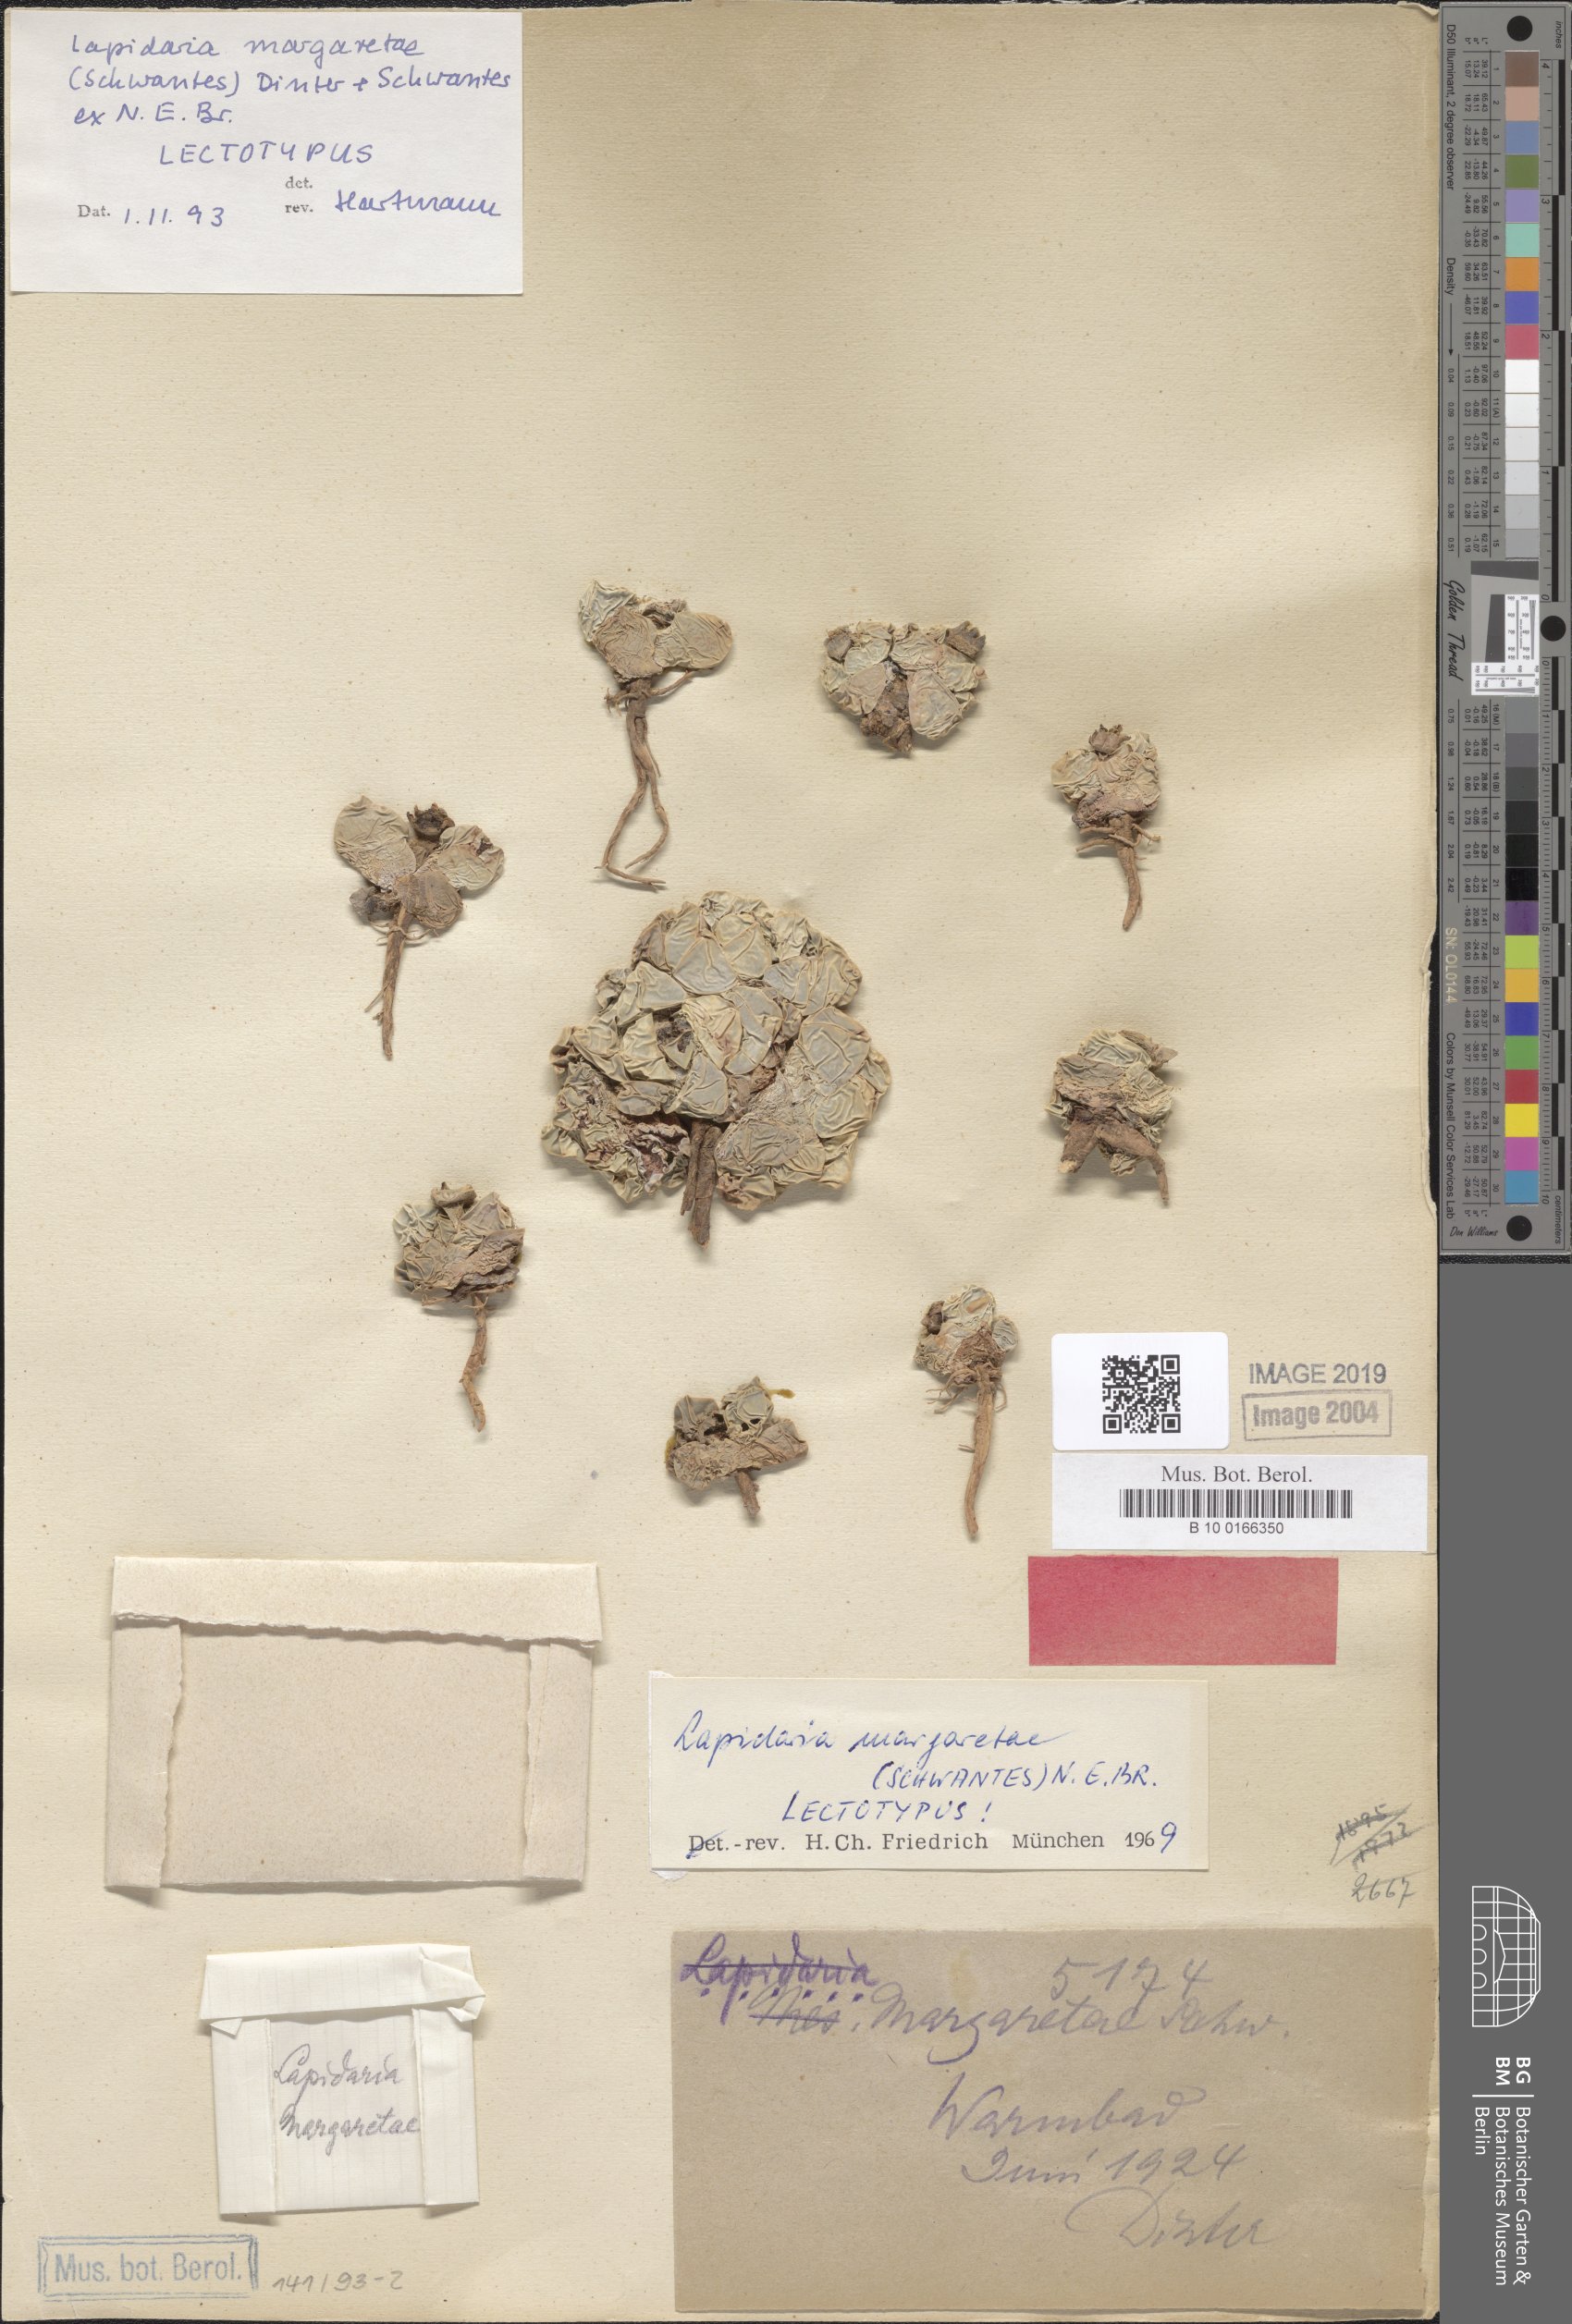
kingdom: Plantae
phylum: Tracheophyta
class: Magnoliopsida
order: Caryophyllales
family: Aizoaceae
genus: Lapidaria
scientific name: Lapidaria margaretae
